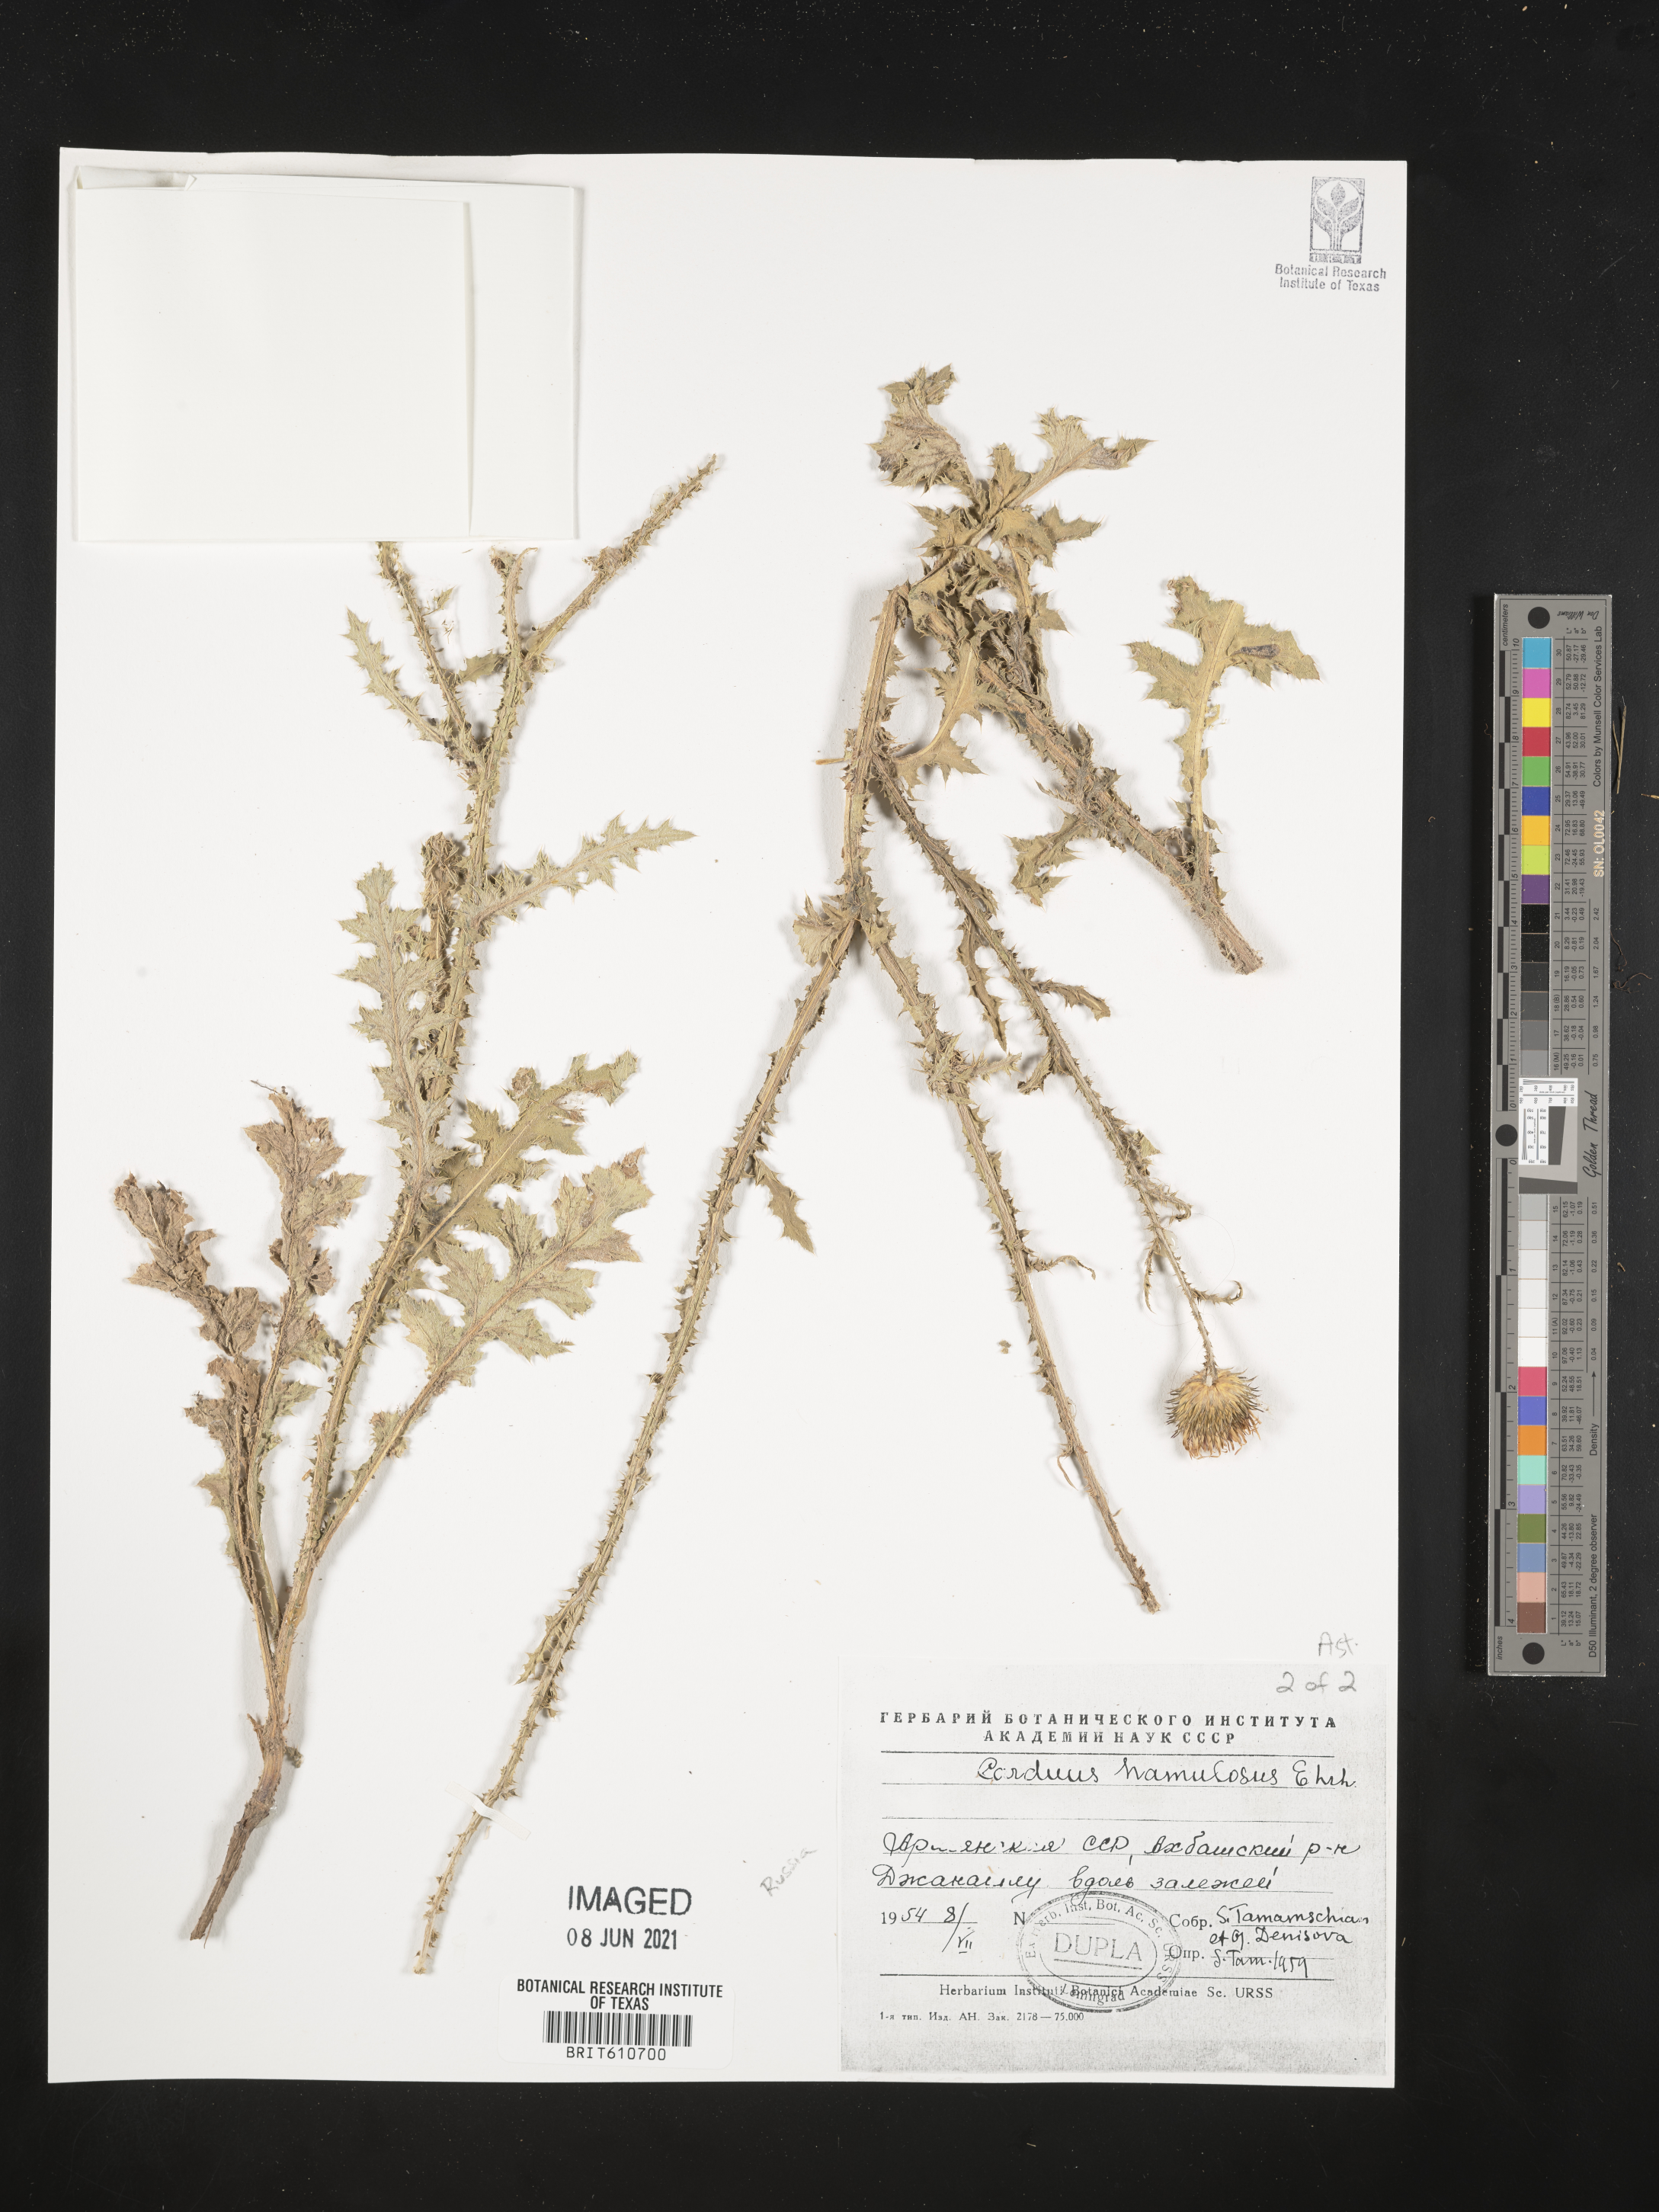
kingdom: Plantae
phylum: Tracheophyta
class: Magnoliopsida
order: Asterales
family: Asteraceae
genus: Carduus
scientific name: Carduus hamulosus
